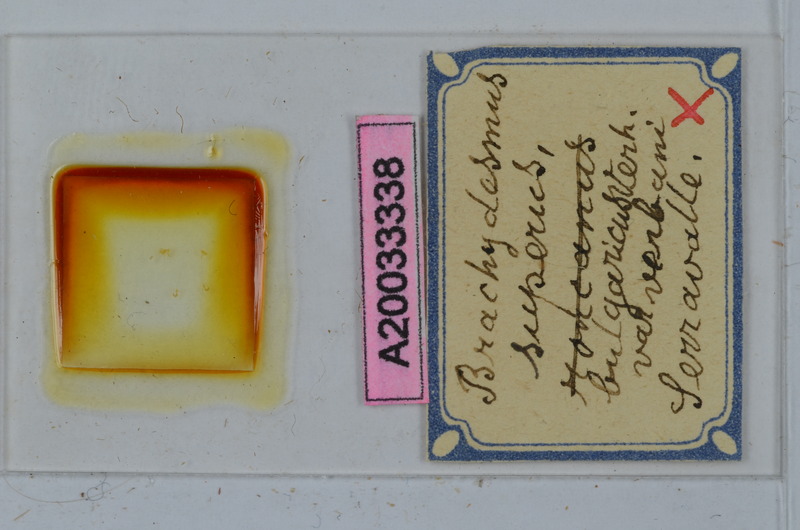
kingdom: Animalia
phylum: Arthropoda
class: Diplopoda
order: Polydesmida
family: Polydesmidae
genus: Brachydesmus
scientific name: Brachydesmus superus
